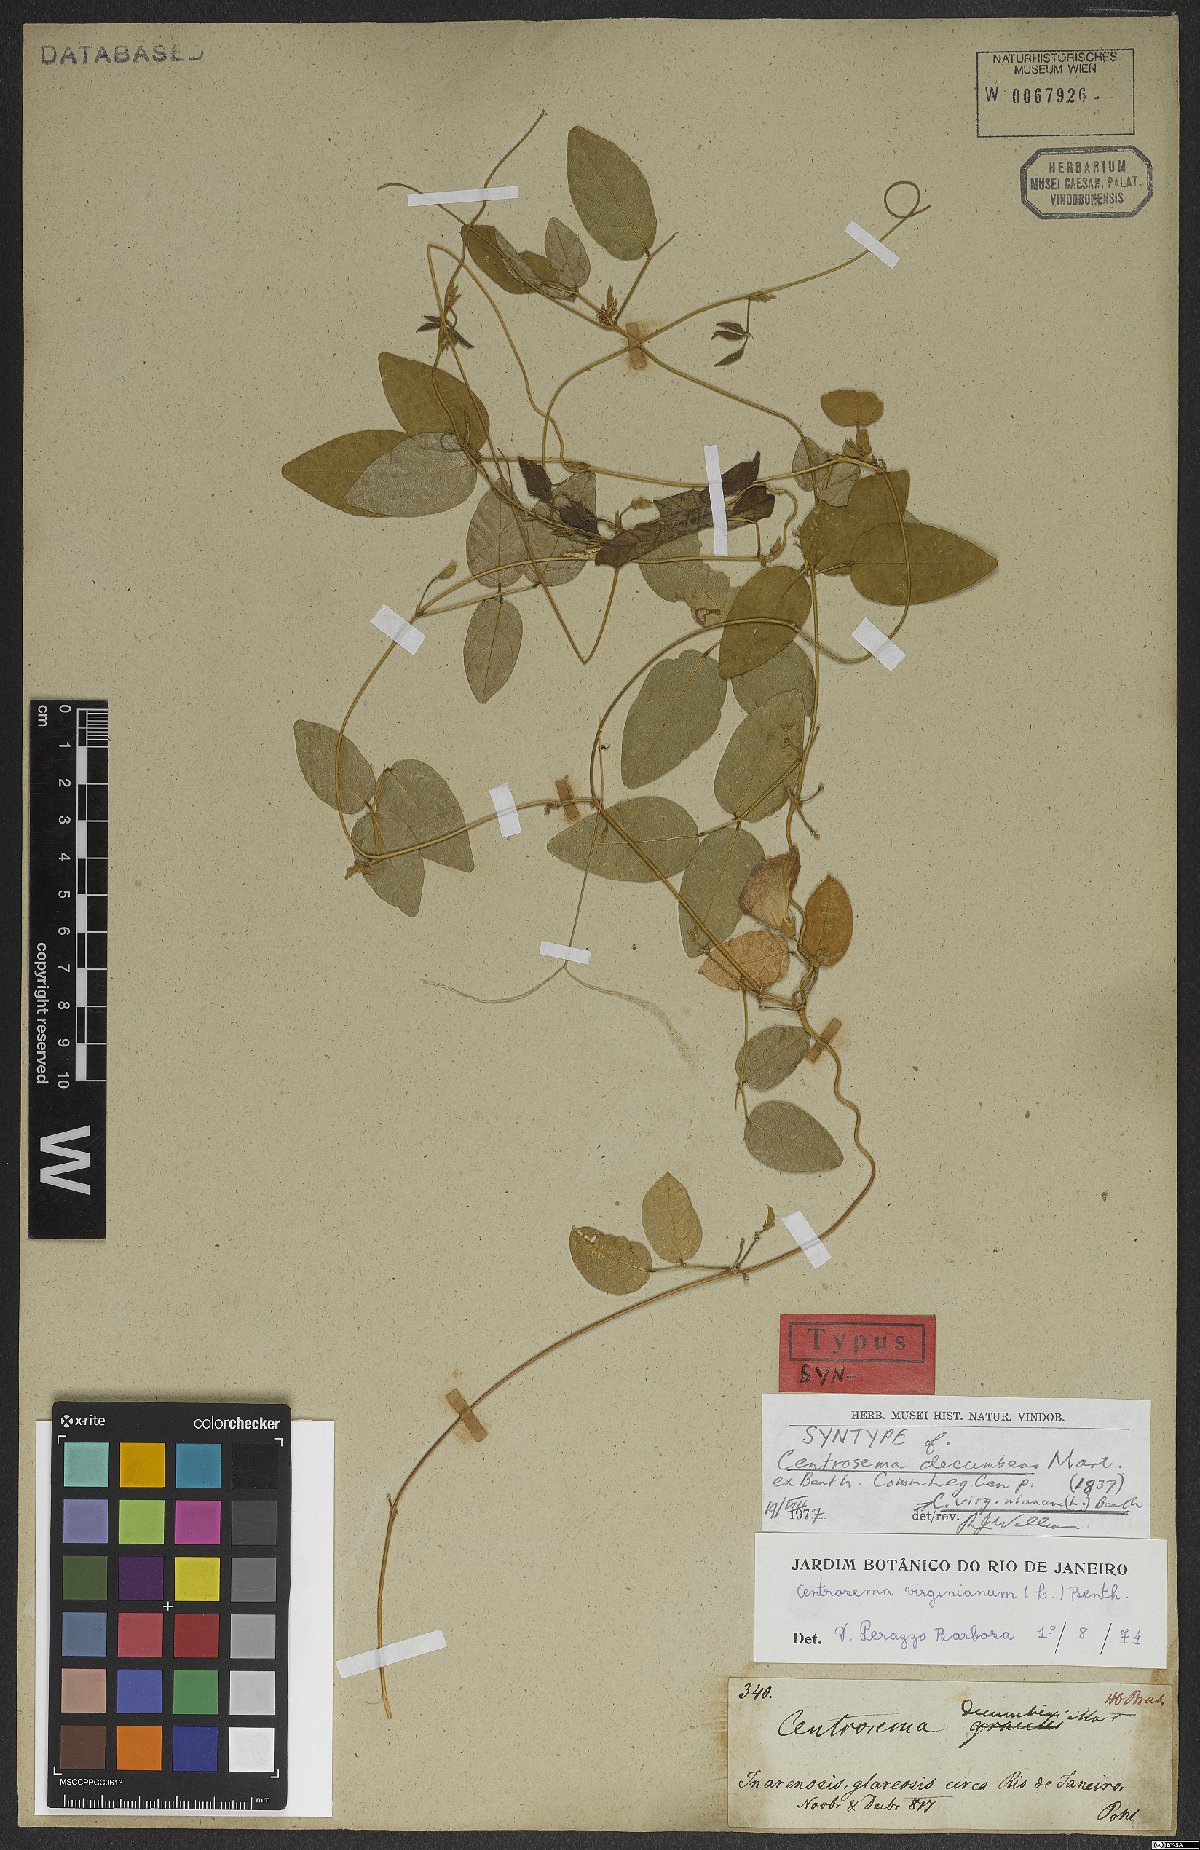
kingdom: Plantae
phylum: Tracheophyta
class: Magnoliopsida
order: Fabales
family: Fabaceae
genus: Centrosema
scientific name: Centrosema virginianum
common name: Butterfly-pea
